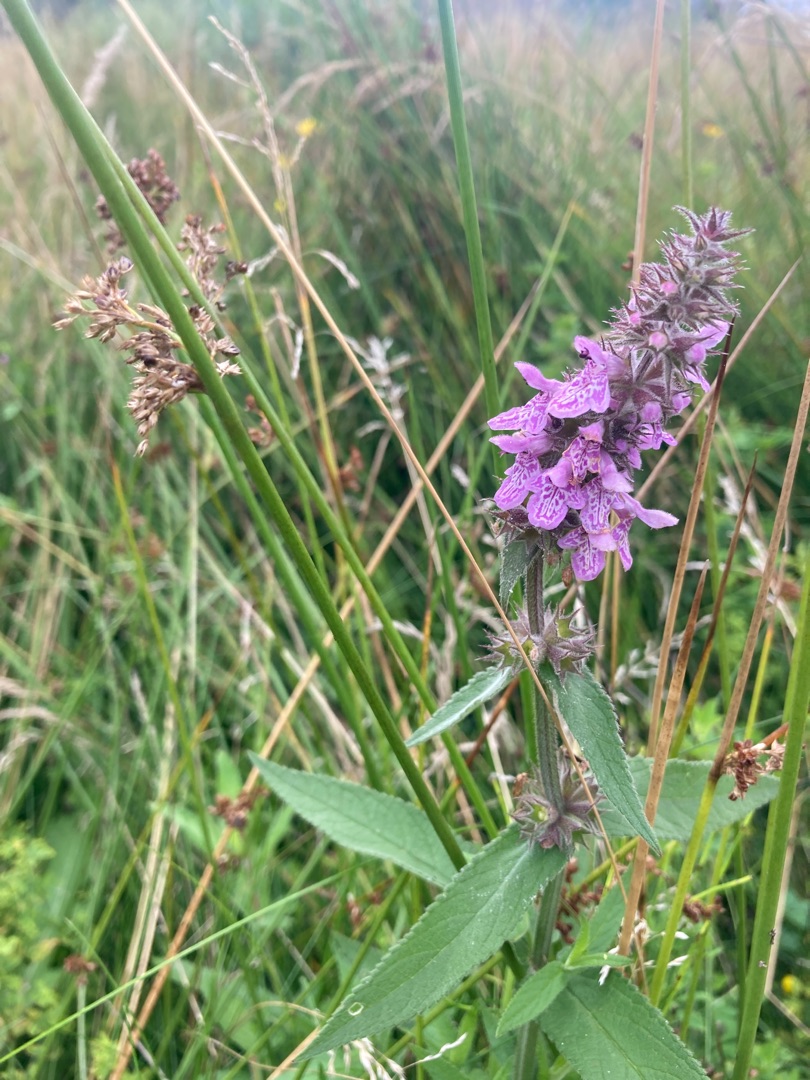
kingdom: Plantae
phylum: Tracheophyta
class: Magnoliopsida
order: Lamiales
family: Lamiaceae
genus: Stachys
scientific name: Stachys palustris
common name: Kær-galtetand
